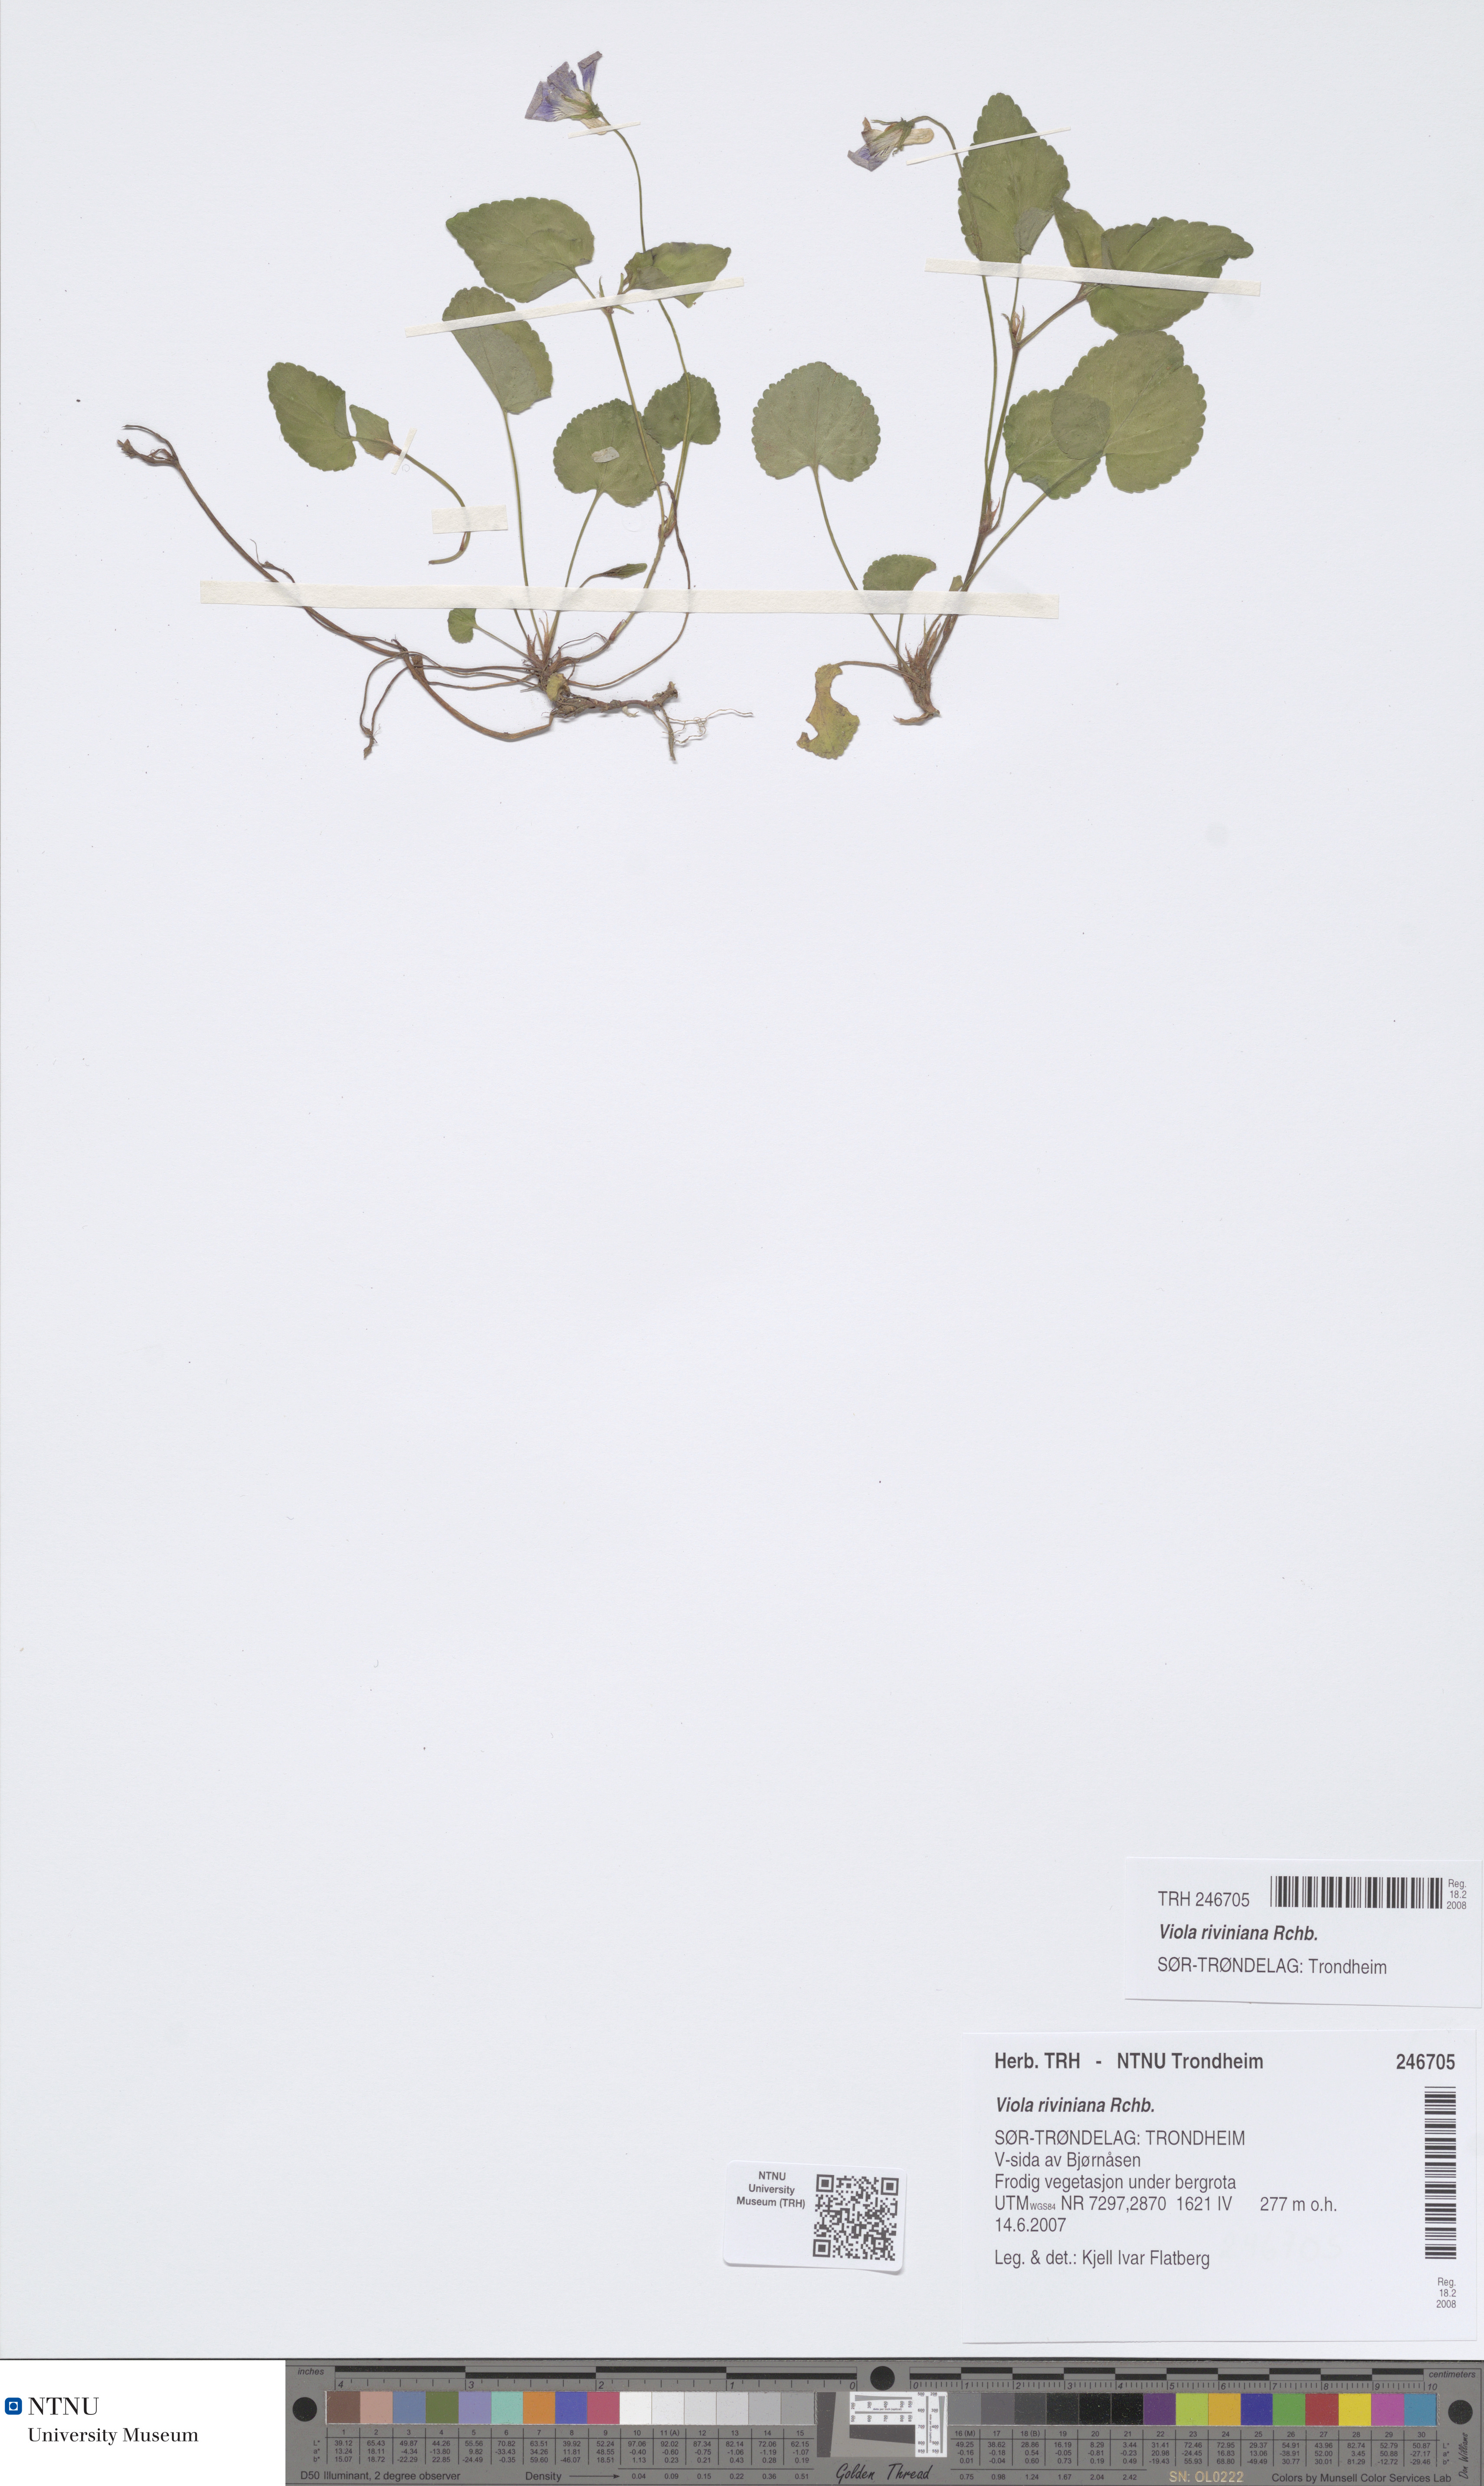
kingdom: Plantae
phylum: Tracheophyta
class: Magnoliopsida
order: Malpighiales
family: Violaceae
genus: Viola
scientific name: Viola riviniana
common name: Common dog-violet
